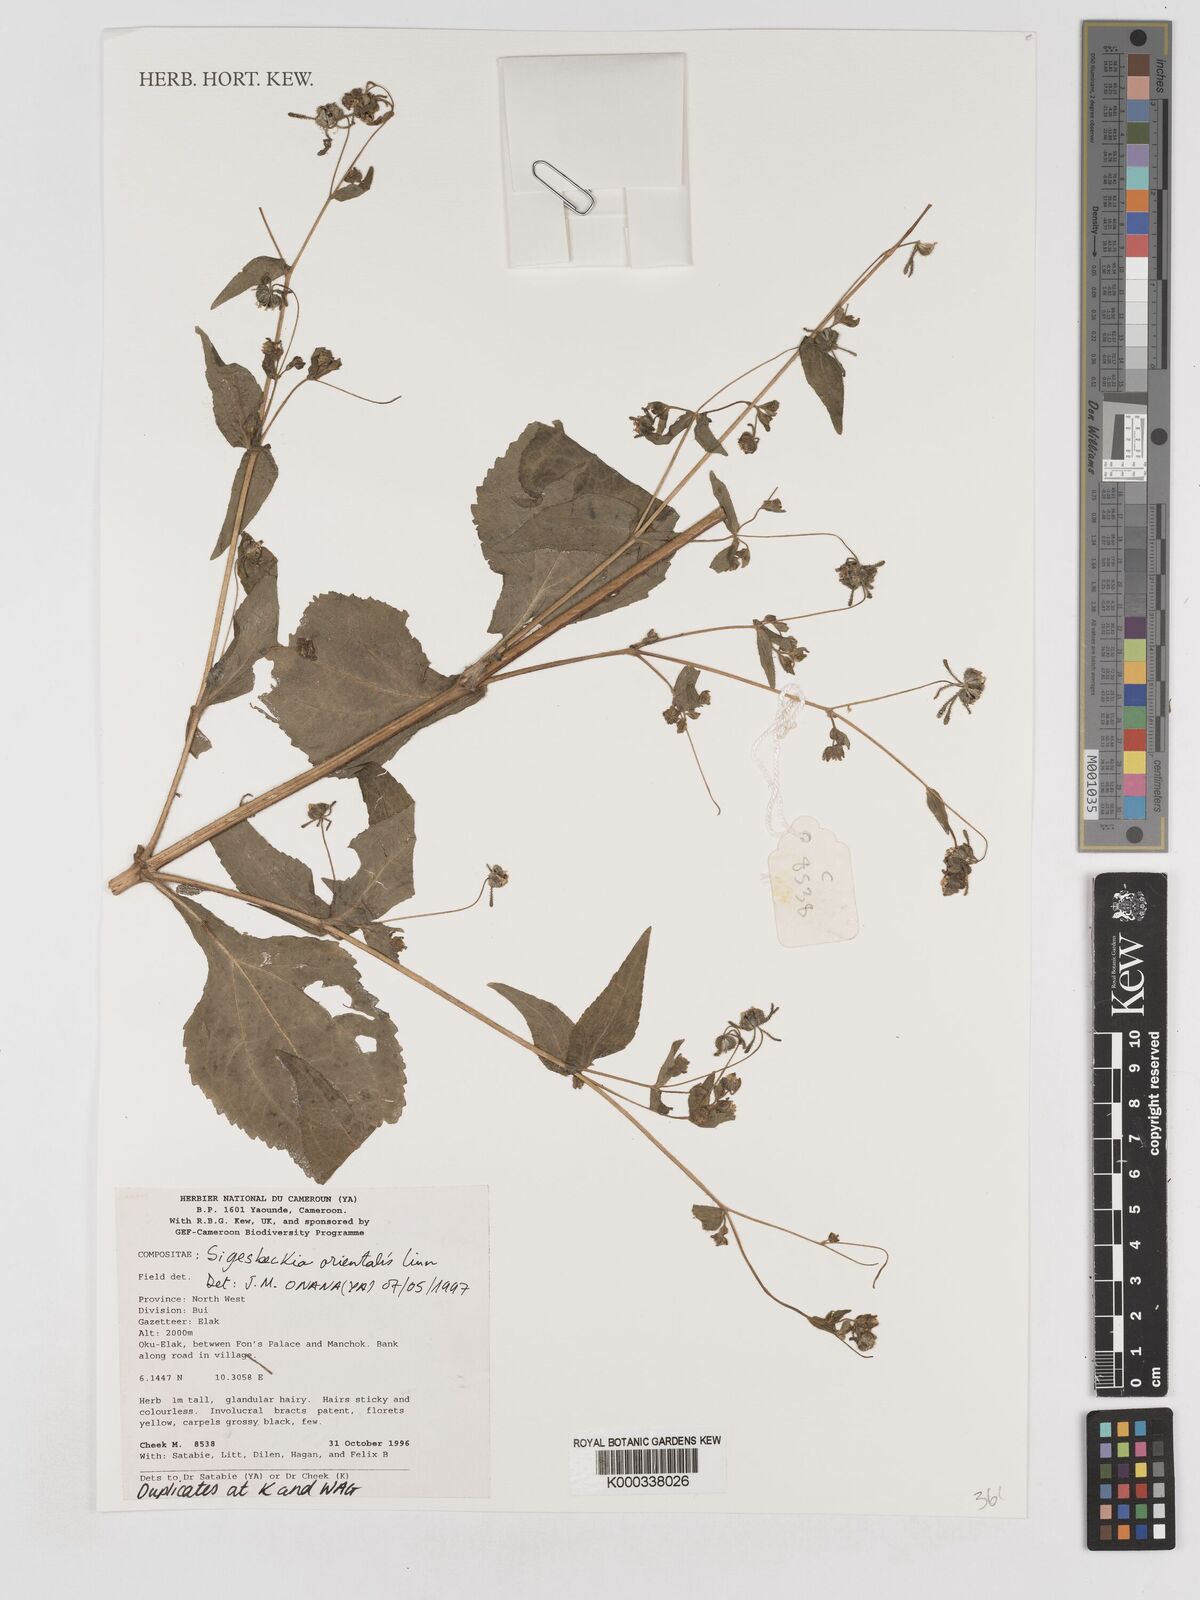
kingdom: Plantae
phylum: Tracheophyta
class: Magnoliopsida
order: Asterales
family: Asteraceae
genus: Sigesbeckia
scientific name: Sigesbeckia
